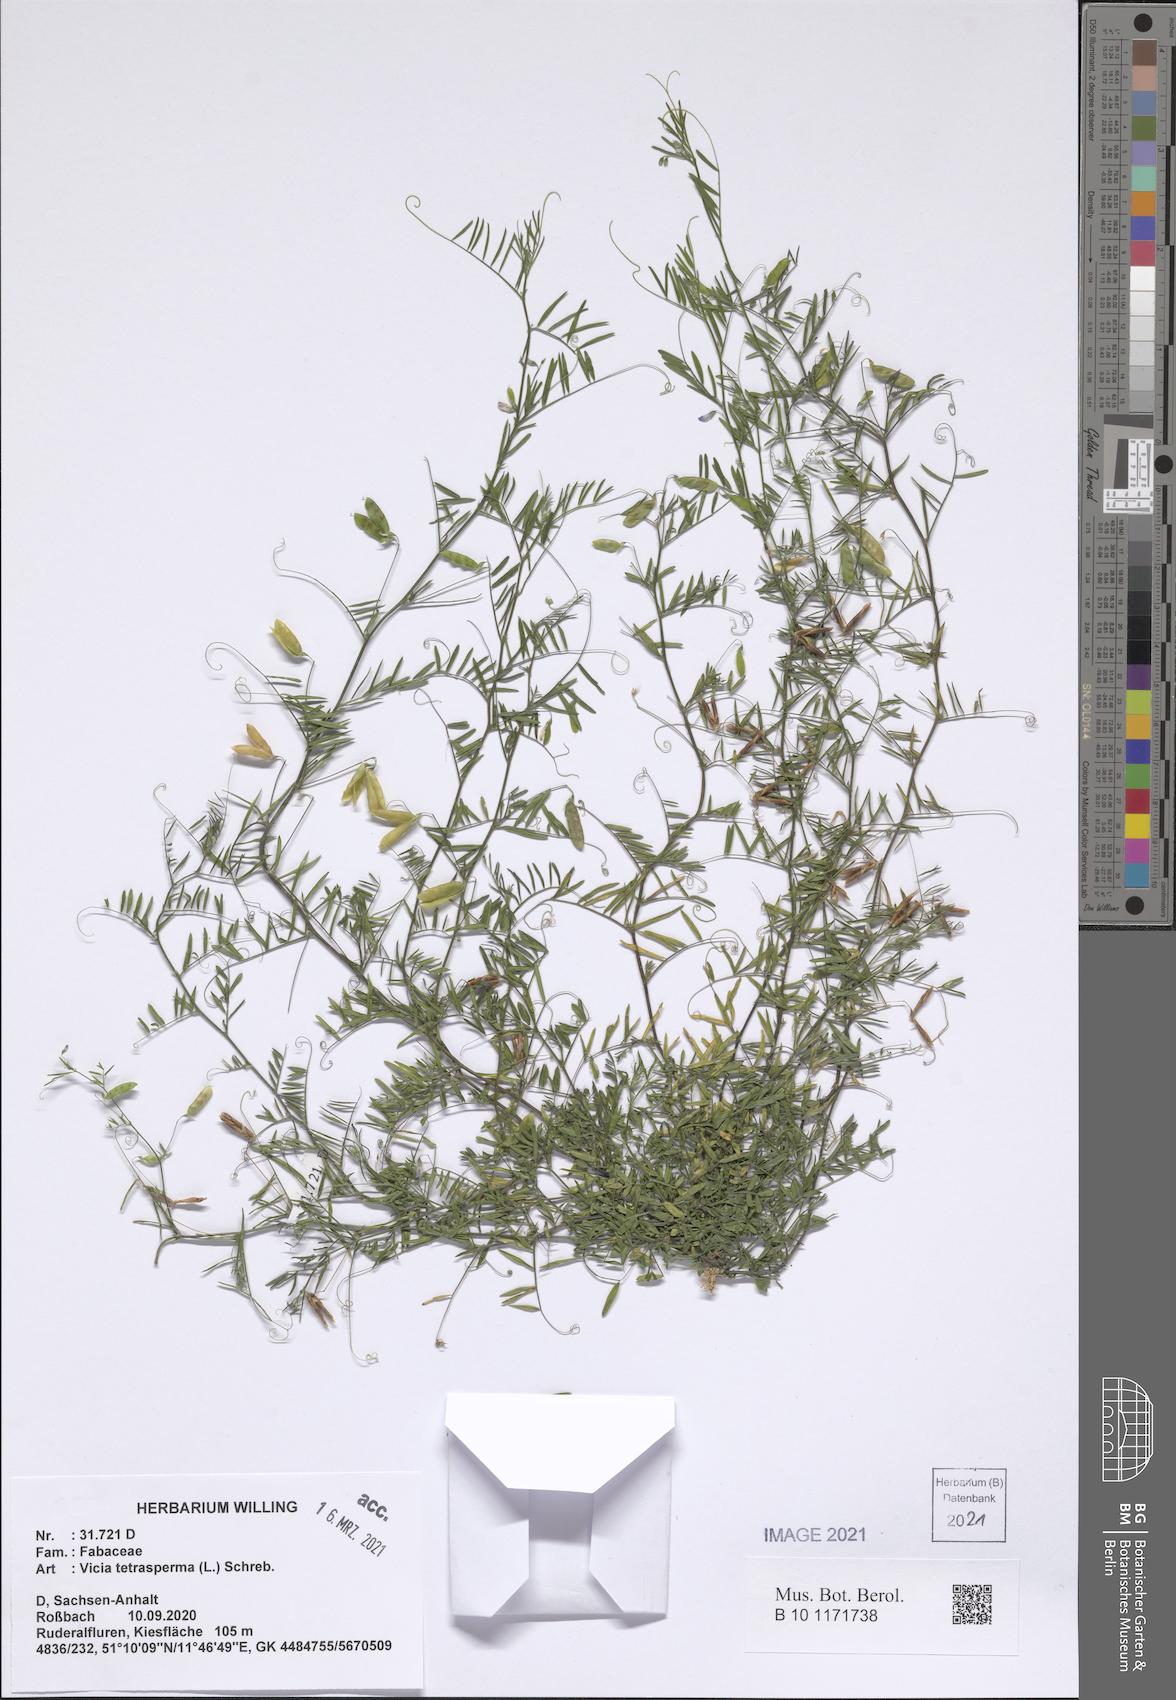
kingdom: Plantae
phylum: Tracheophyta
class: Magnoliopsida
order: Fabales
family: Fabaceae
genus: Vicia
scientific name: Vicia tetrasperma
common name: Smooth tare
